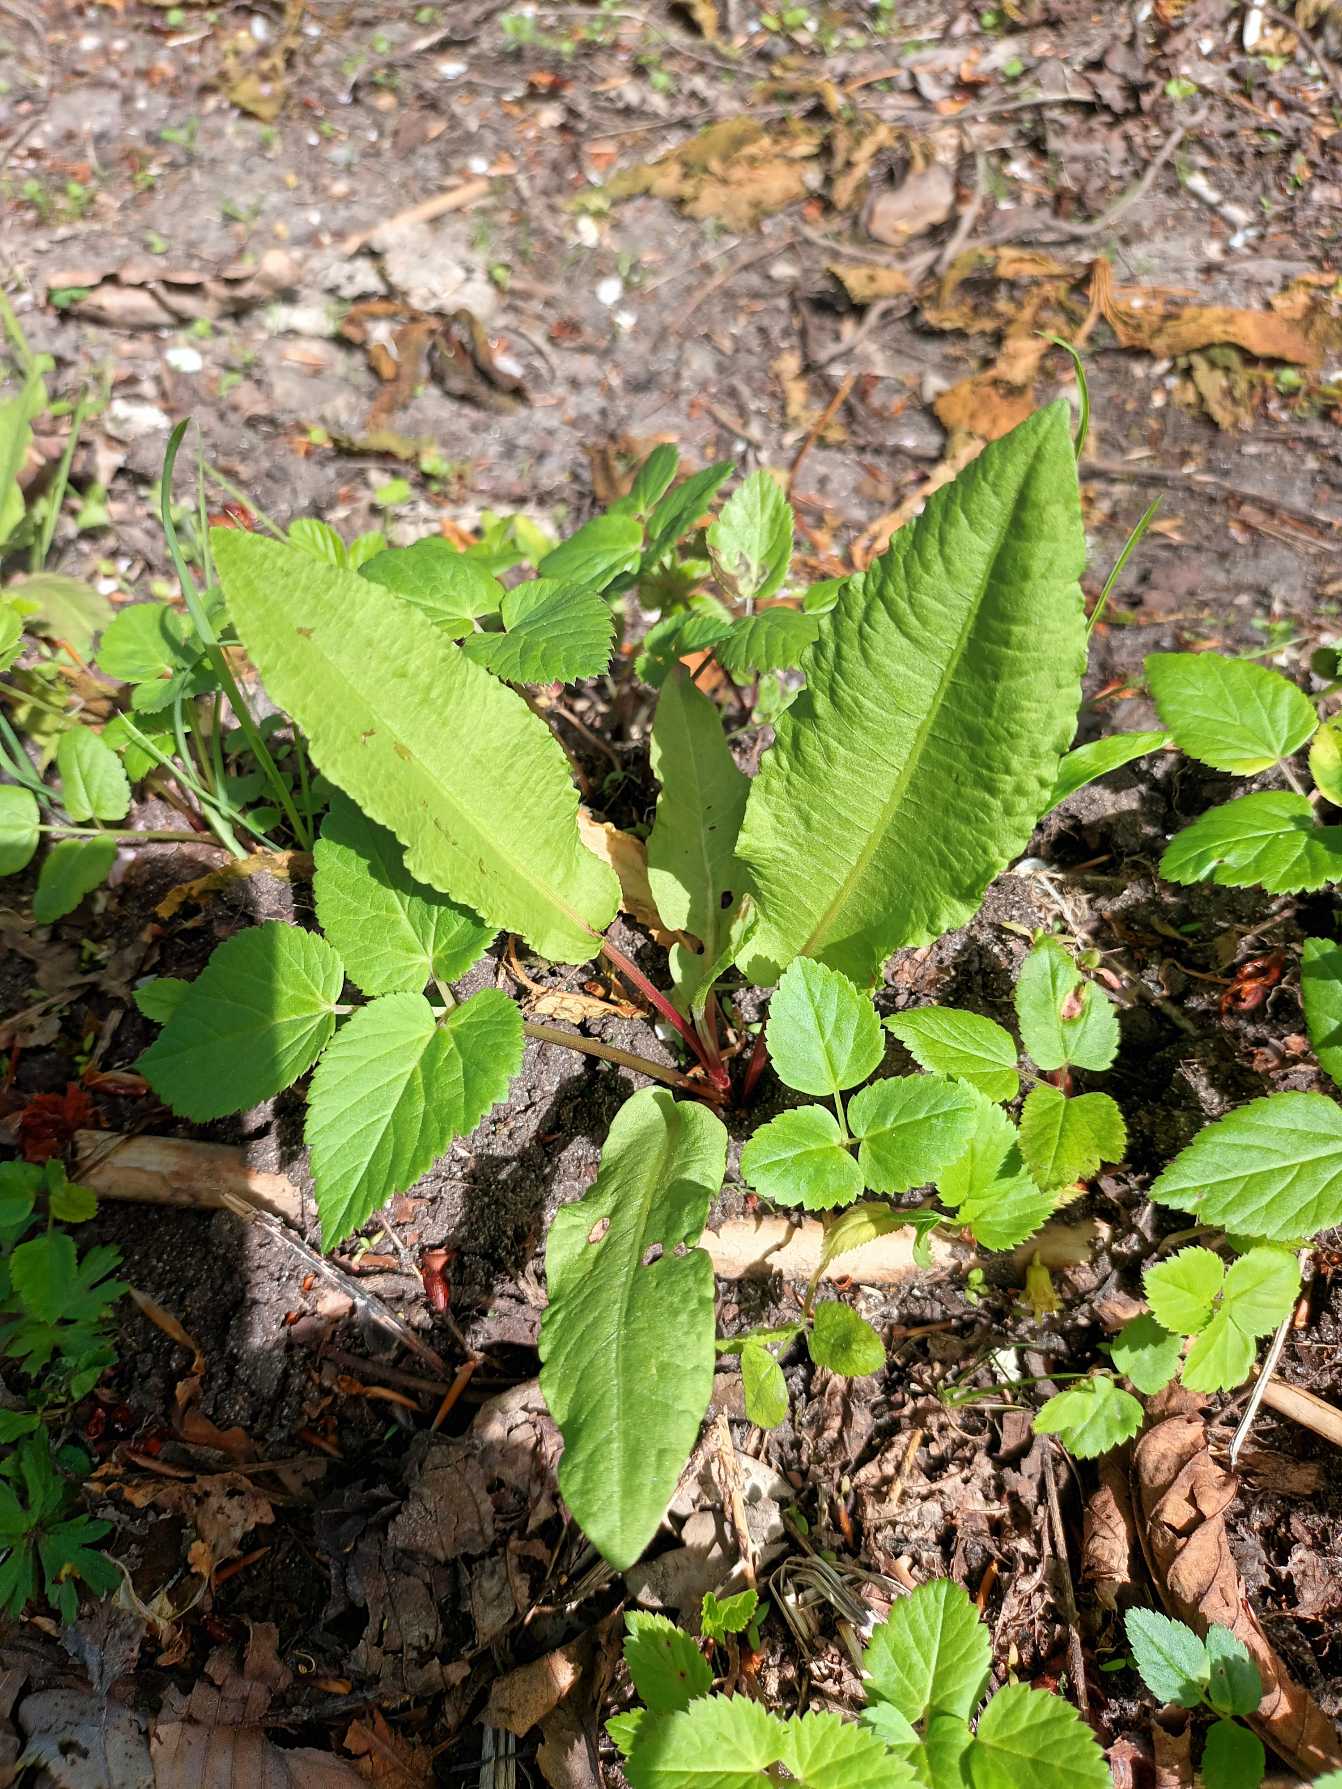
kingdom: Plantae
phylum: Tracheophyta
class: Magnoliopsida
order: Caryophyllales
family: Polygonaceae
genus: Rumex
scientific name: Rumex sanguineus
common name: Skov-skræppe
